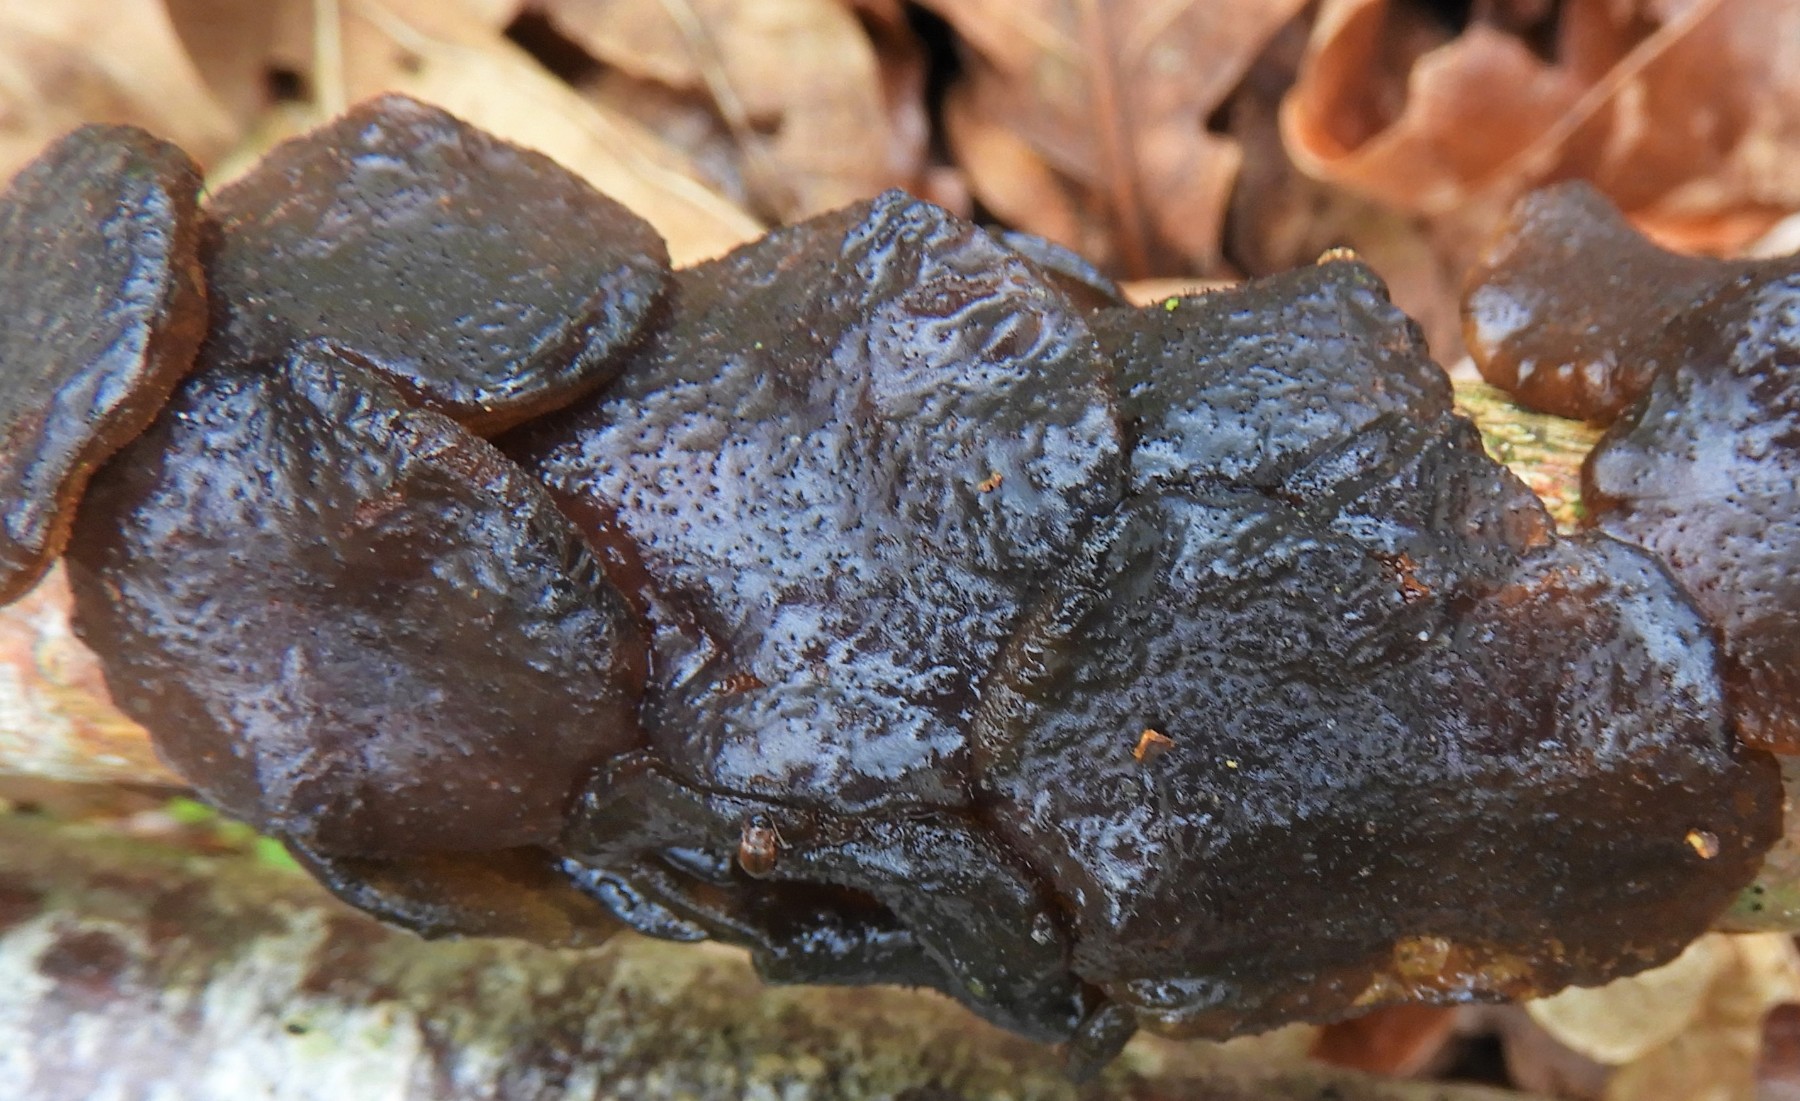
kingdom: Fungi
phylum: Basidiomycota
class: Agaricomycetes
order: Auriculariales
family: Auriculariaceae
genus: Exidia
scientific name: Exidia glandulosa
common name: ege-bævretop
